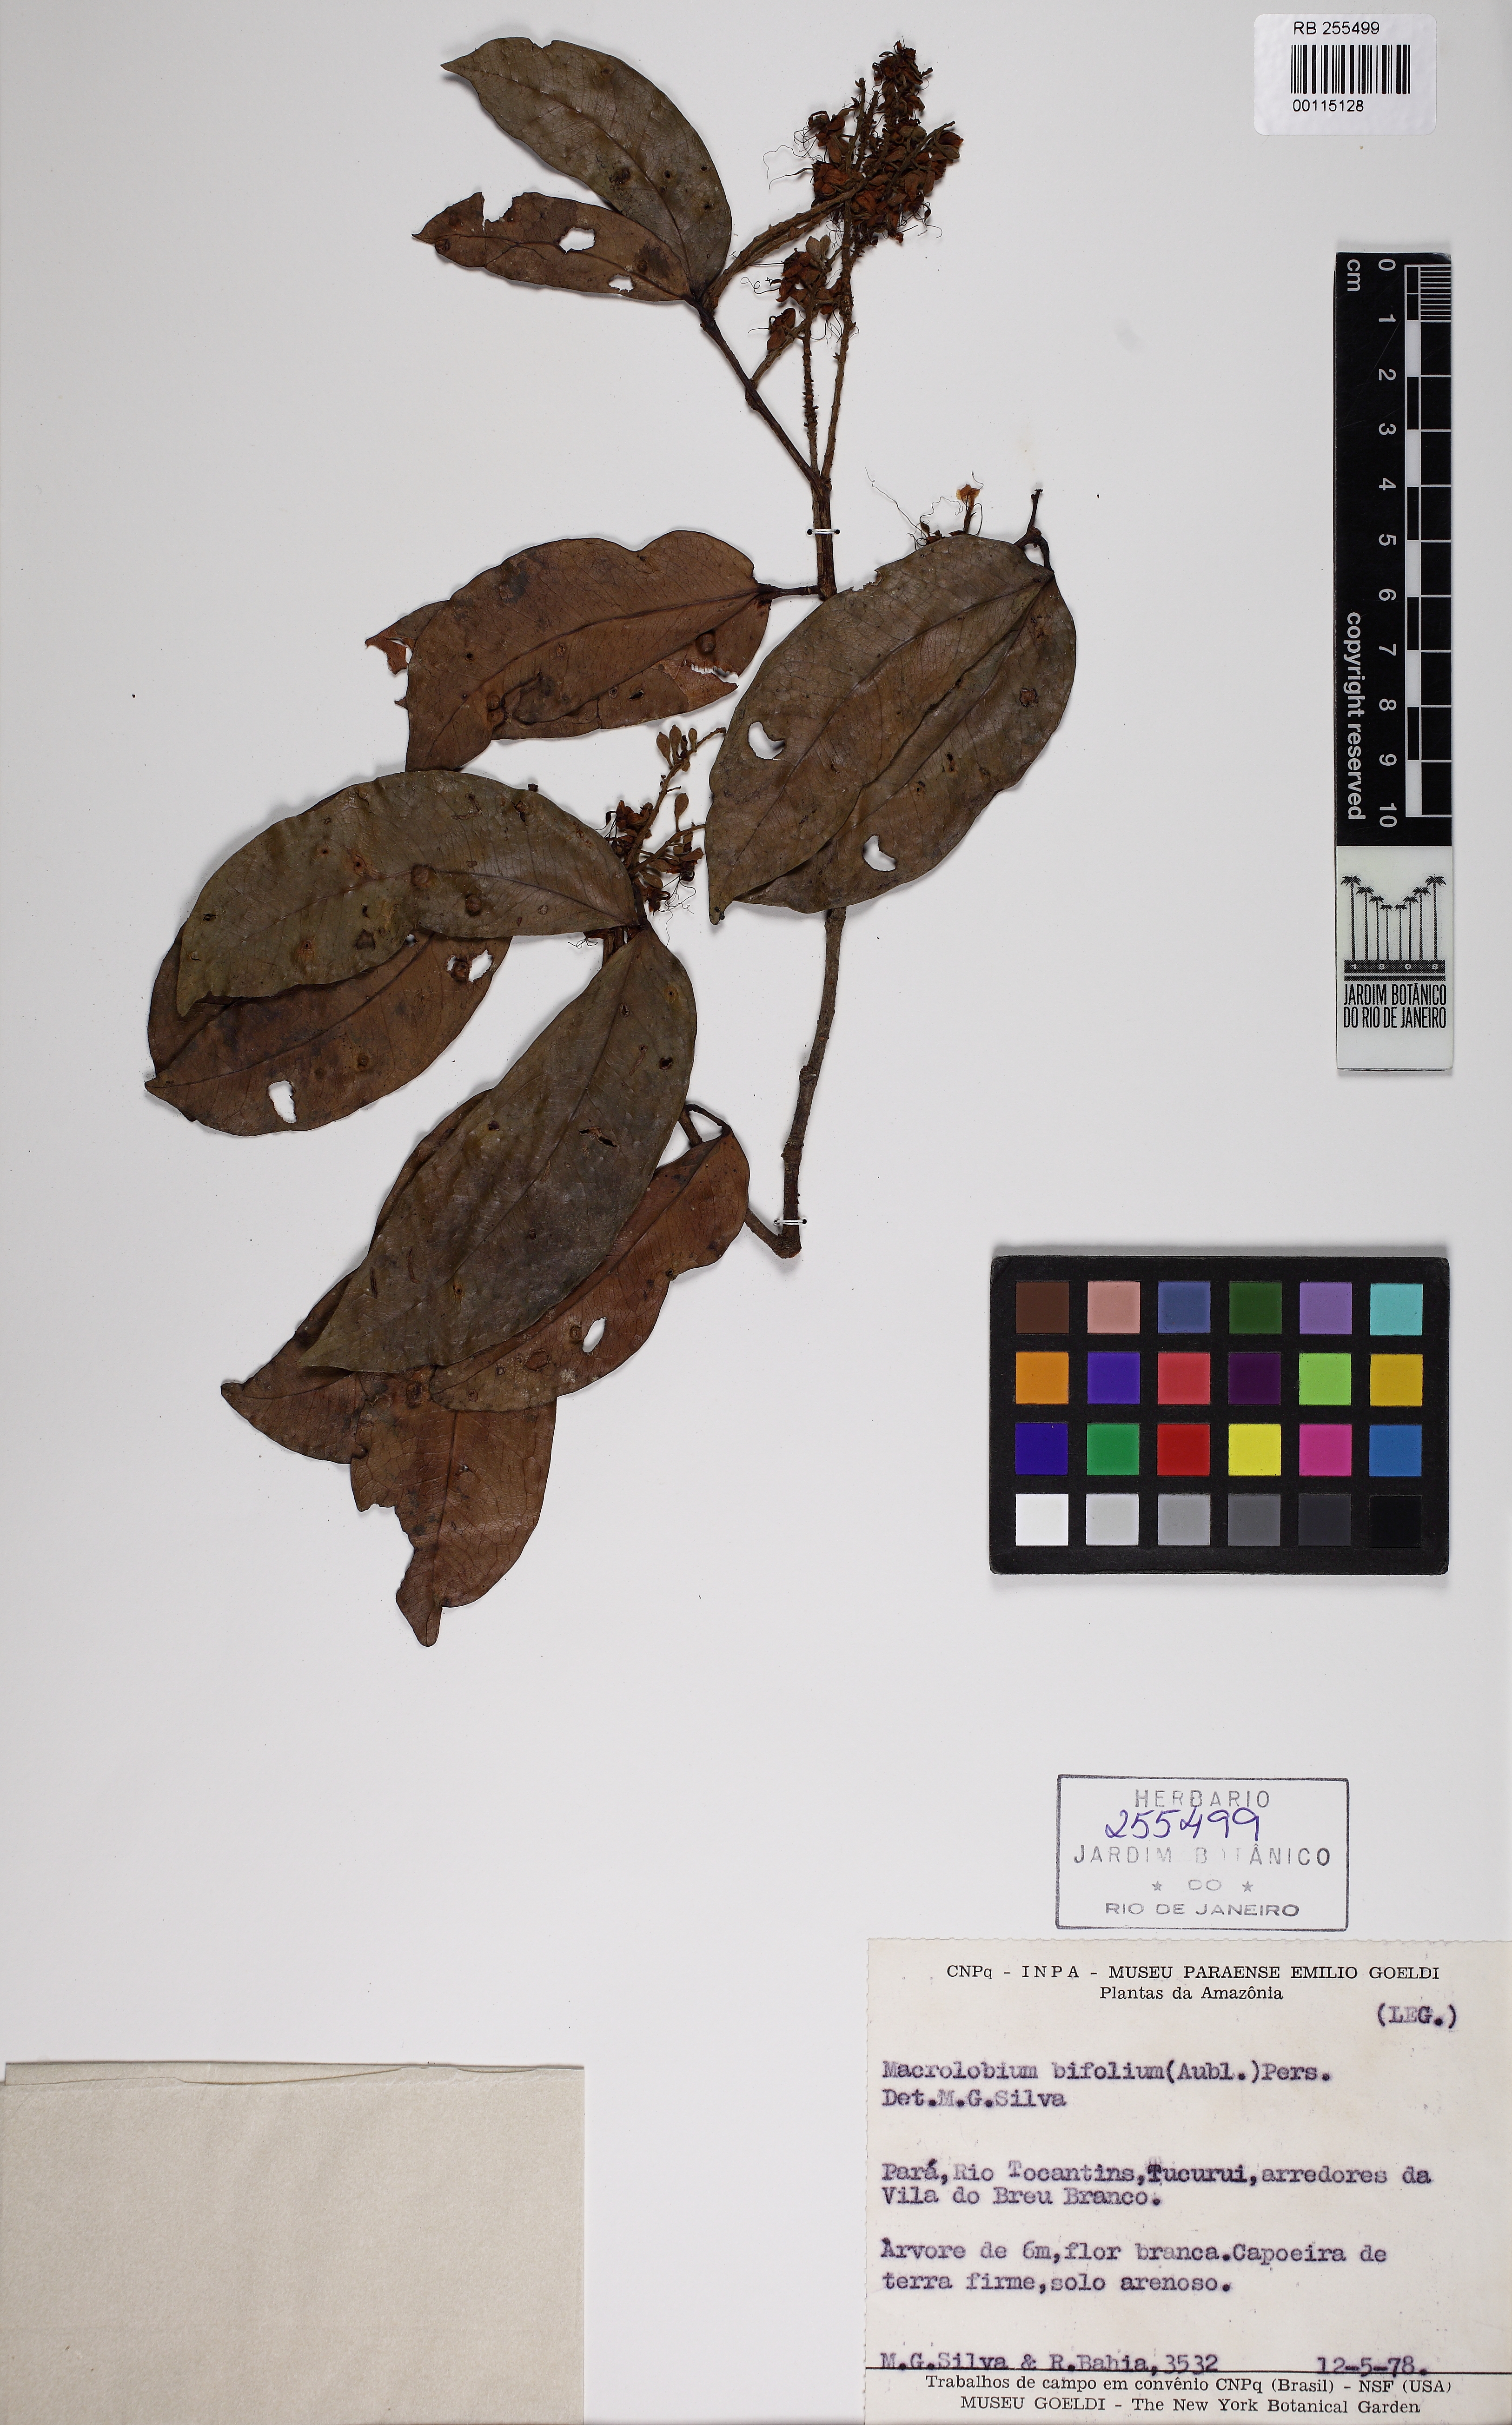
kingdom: Plantae
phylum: Tracheophyta
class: Magnoliopsida
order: Fabales
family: Fabaceae
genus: Macrolobium
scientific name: Macrolobium bifolium
